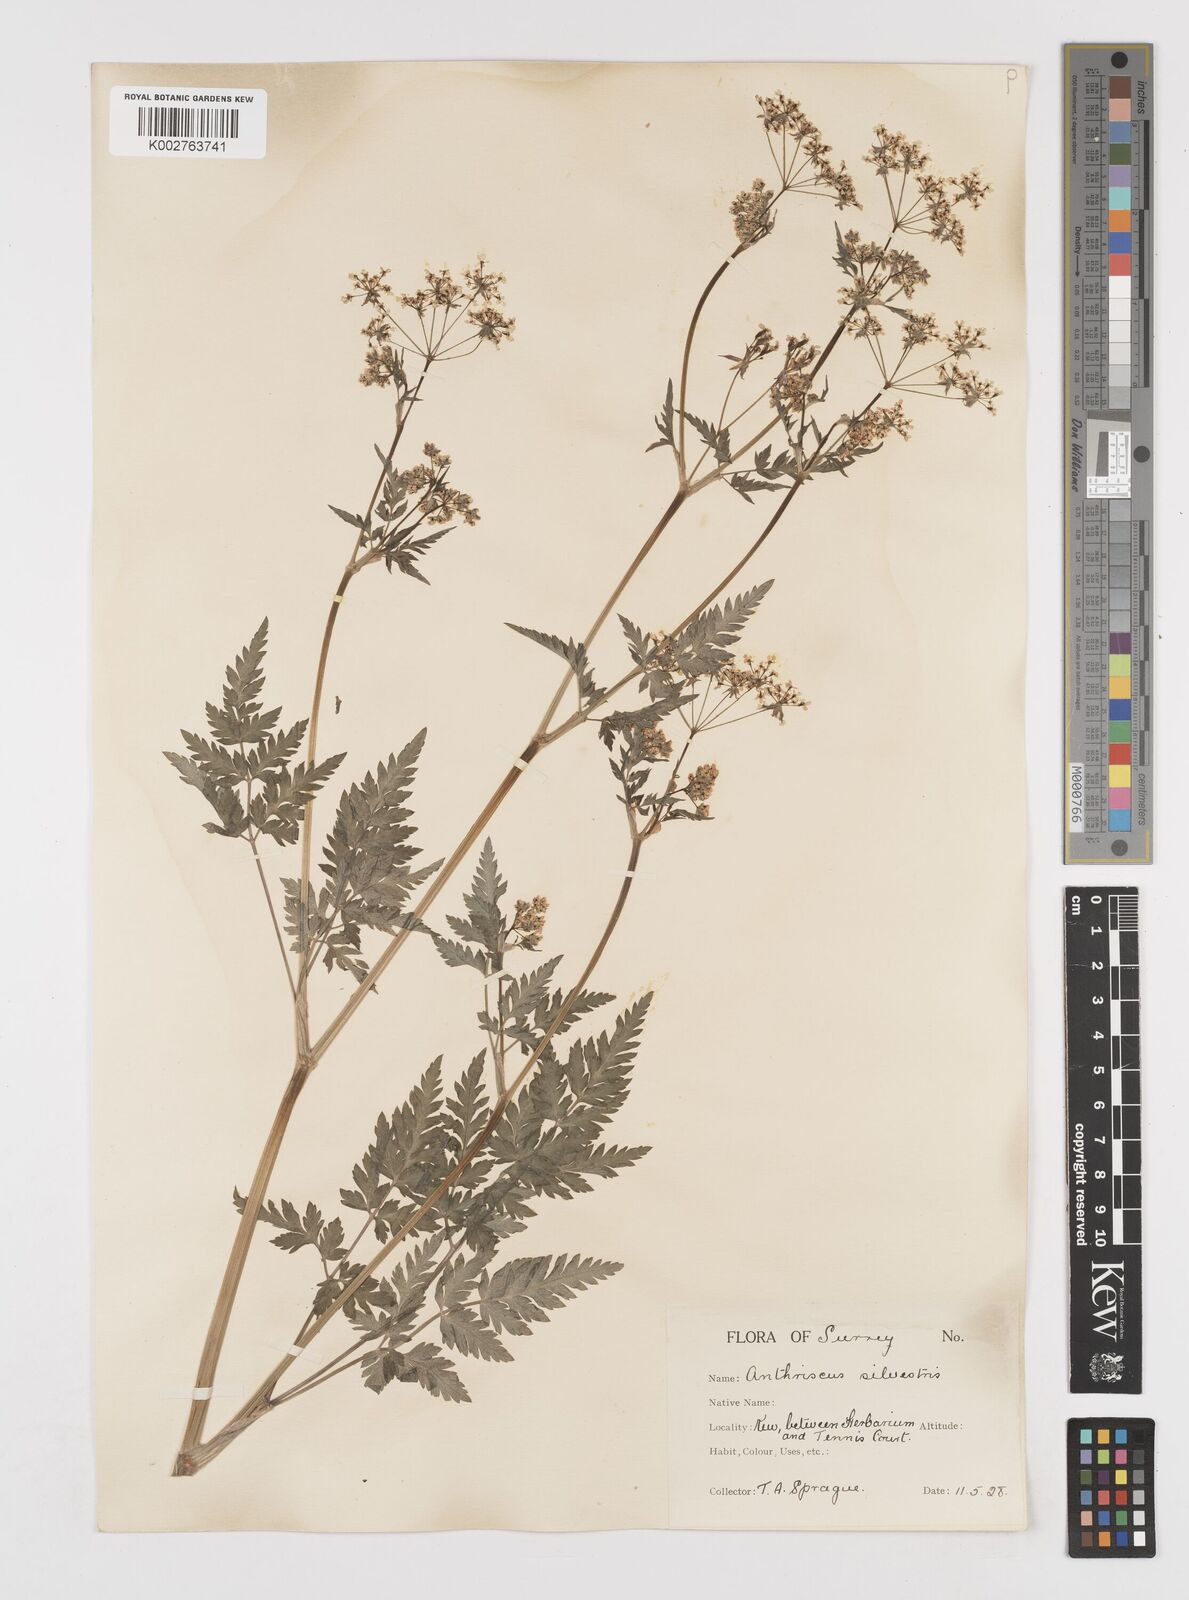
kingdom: Plantae
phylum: Tracheophyta
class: Magnoliopsida
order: Apiales
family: Apiaceae
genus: Anthriscus
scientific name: Anthriscus sylvestris
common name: Cow parsley
